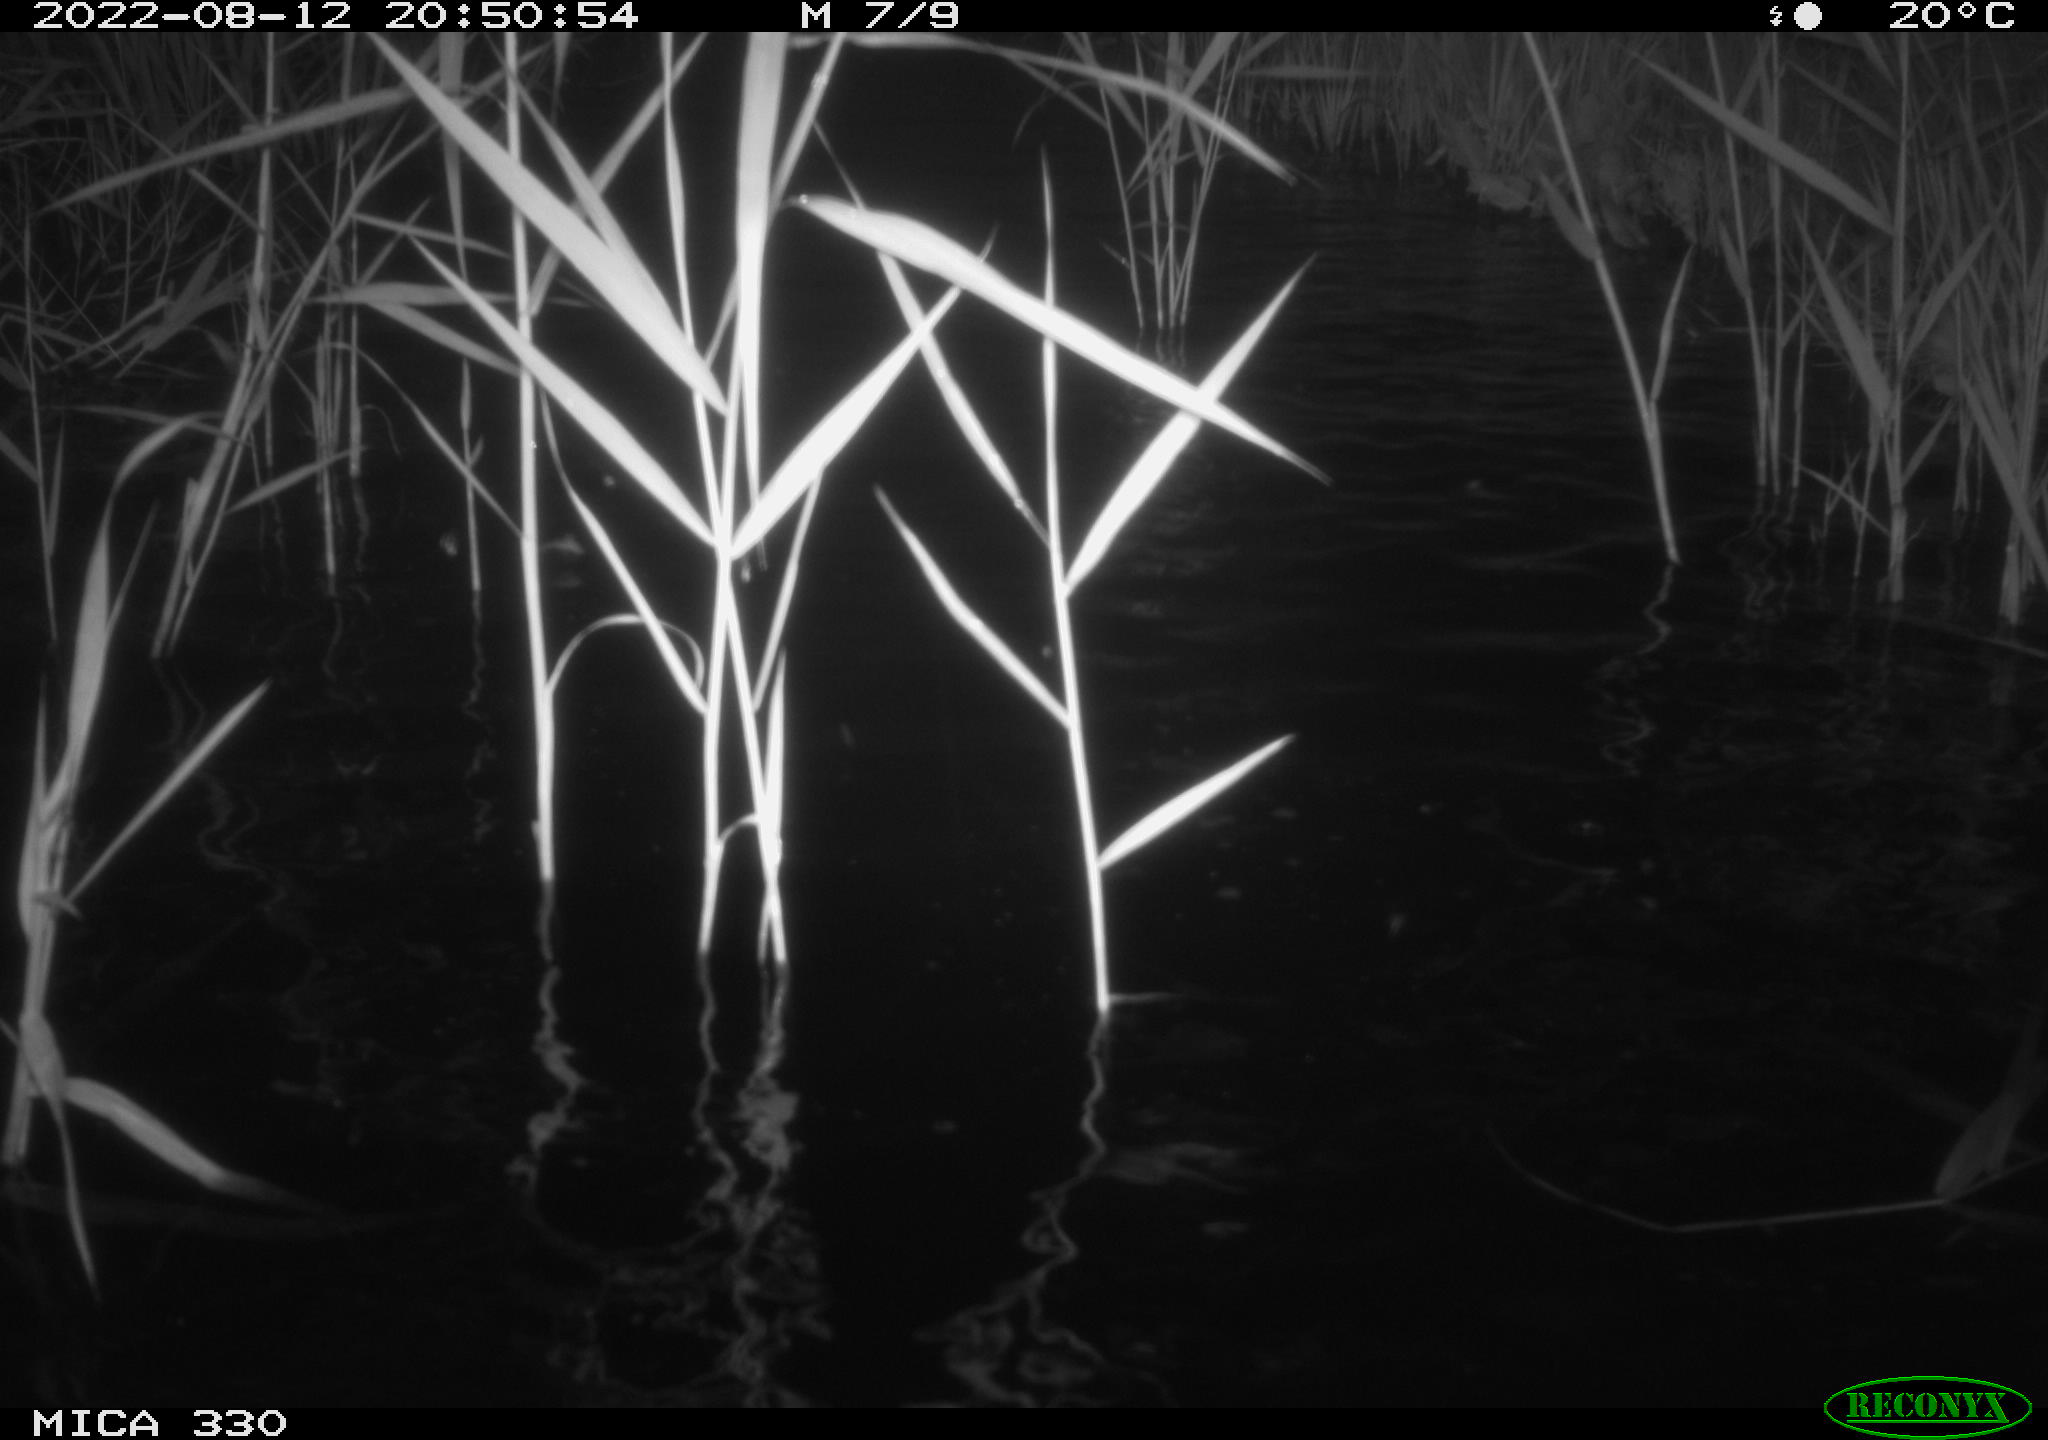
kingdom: Animalia
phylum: Chordata
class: Aves
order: Anseriformes
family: Anatidae
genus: Anas
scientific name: Anas platyrhynchos
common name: Mallard
